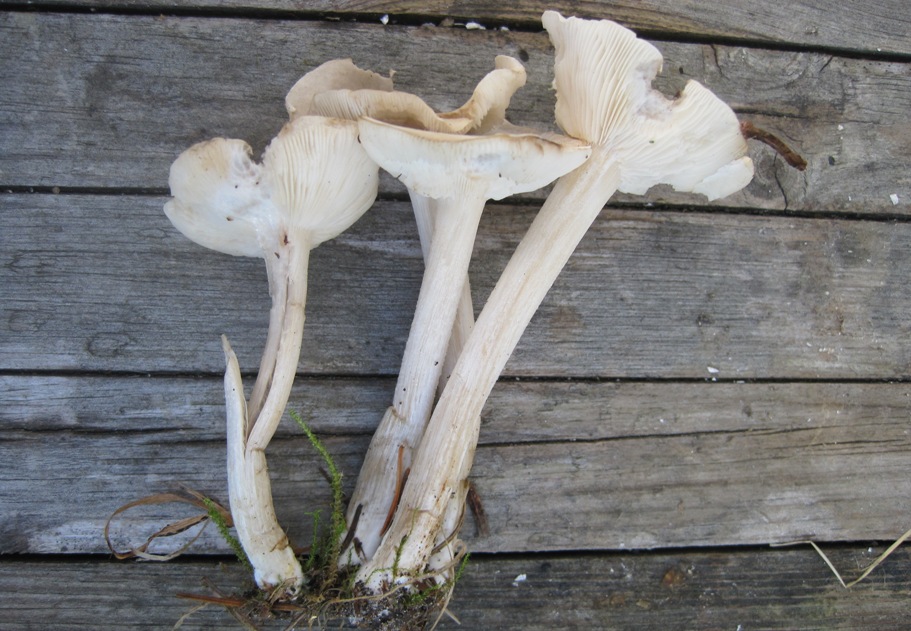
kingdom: Fungi
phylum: Basidiomycota
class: Agaricomycetes
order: Agaricales
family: Tricholomataceae
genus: Melanoleuca
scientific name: Melanoleuca microcephala
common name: spinkel munkehat
